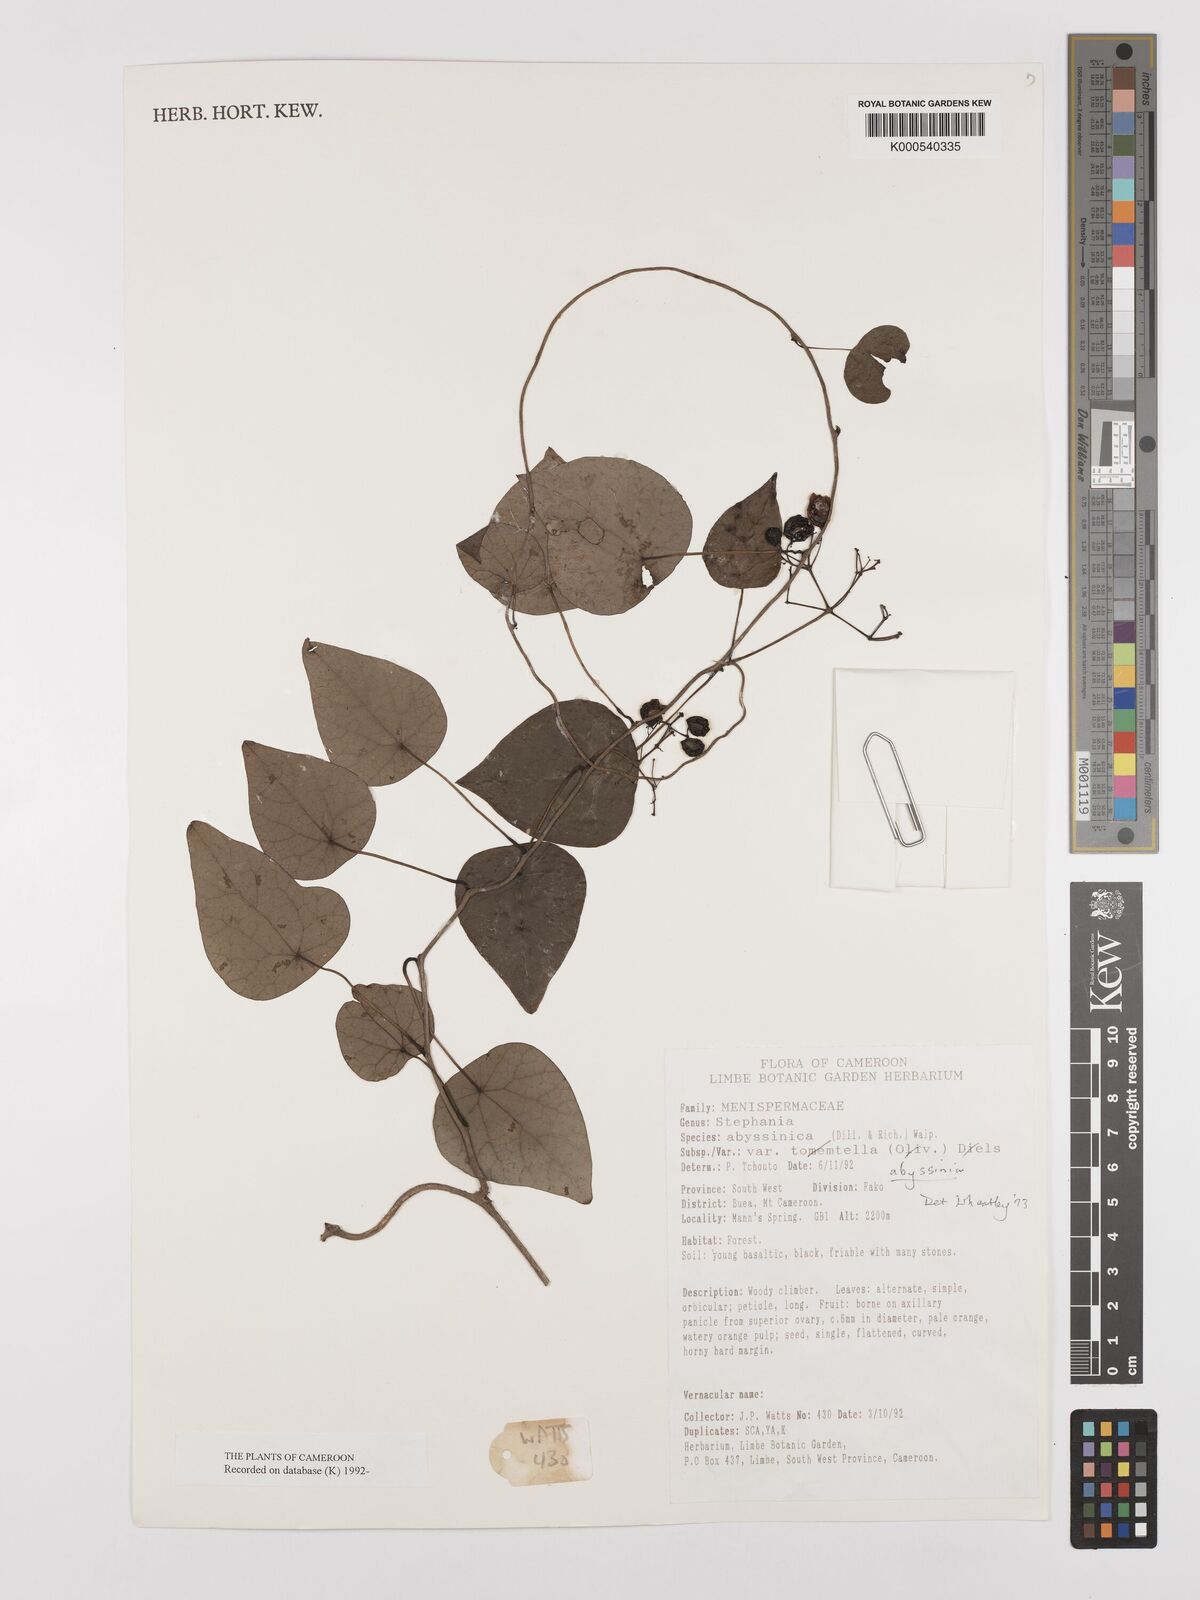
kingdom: Plantae
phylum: Tracheophyta
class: Magnoliopsida
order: Ranunculales
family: Menispermaceae
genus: Stephania
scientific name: Stephania abyssinica
